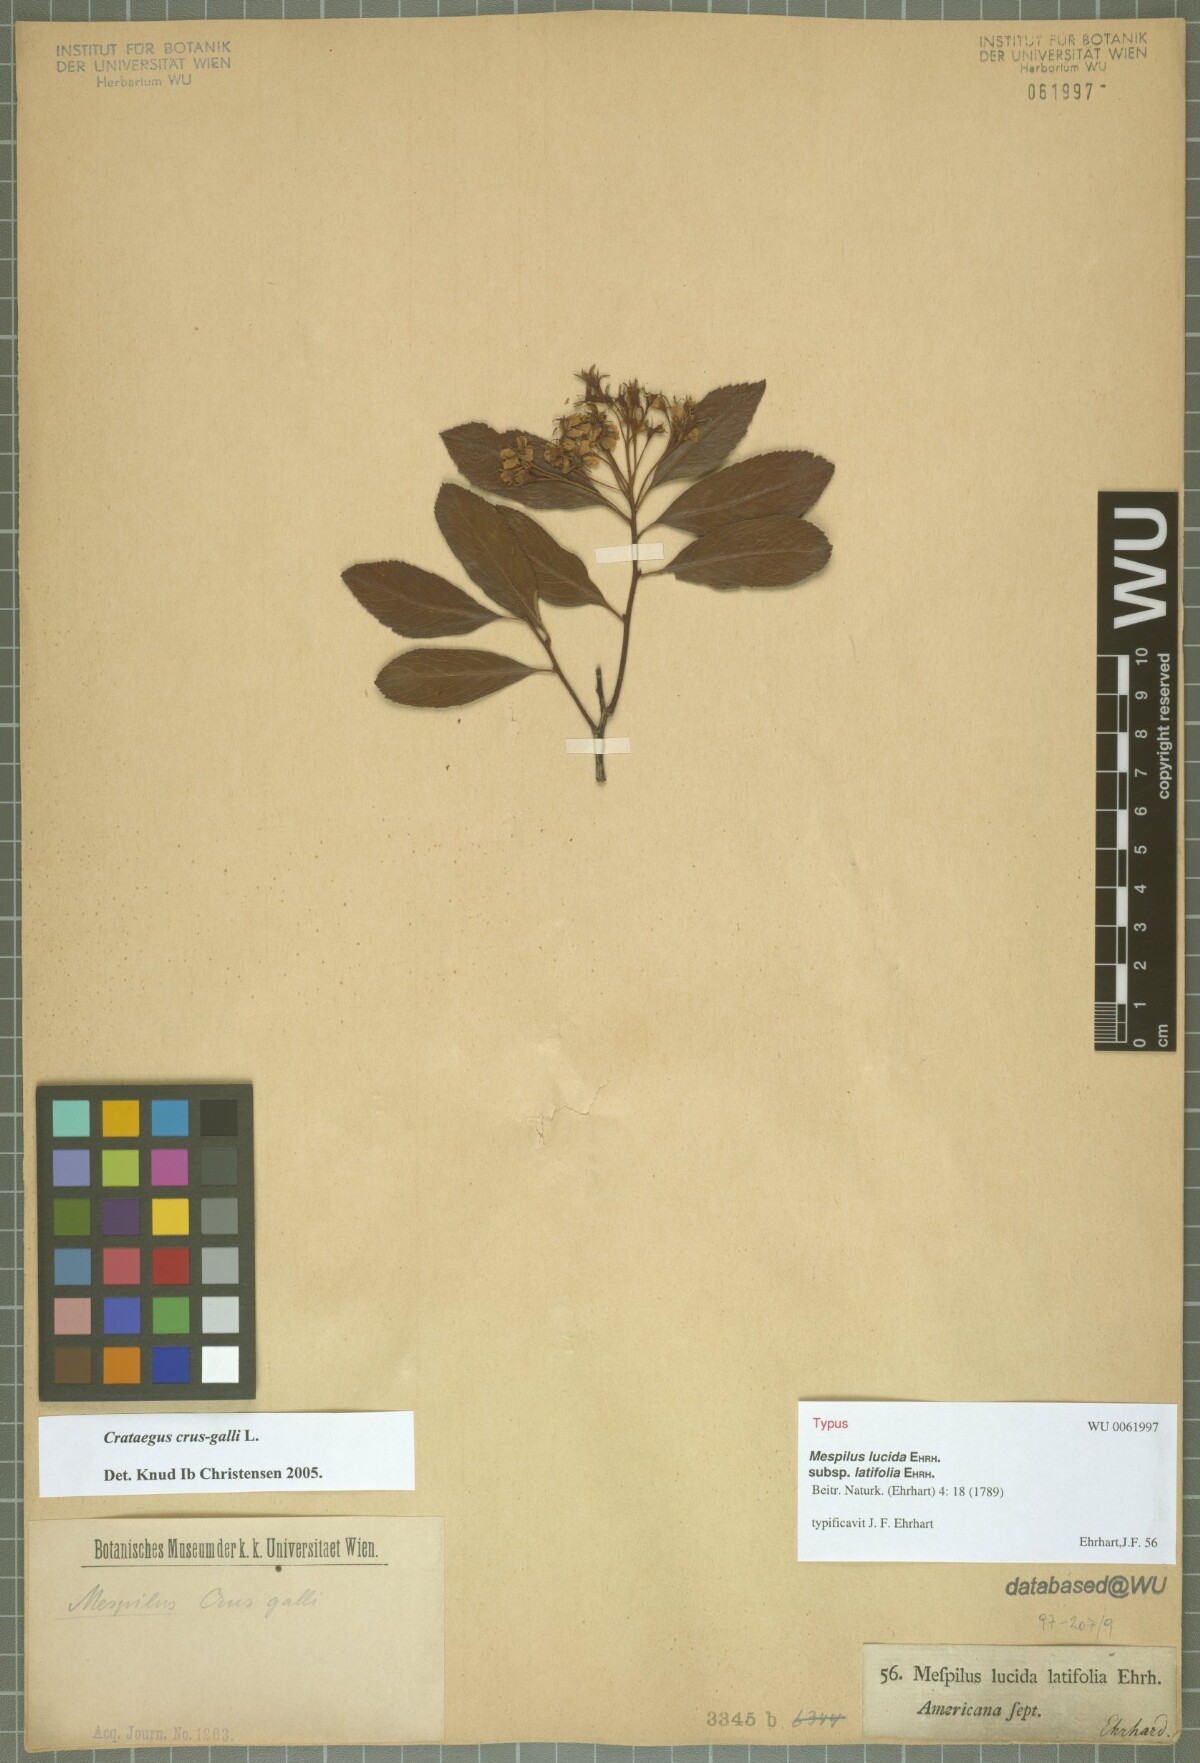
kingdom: Plantae
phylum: Tracheophyta
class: Magnoliopsida
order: Rosales
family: Rosaceae
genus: Crataegus
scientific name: Crataegus crus-galli
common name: Cockspurthorn
